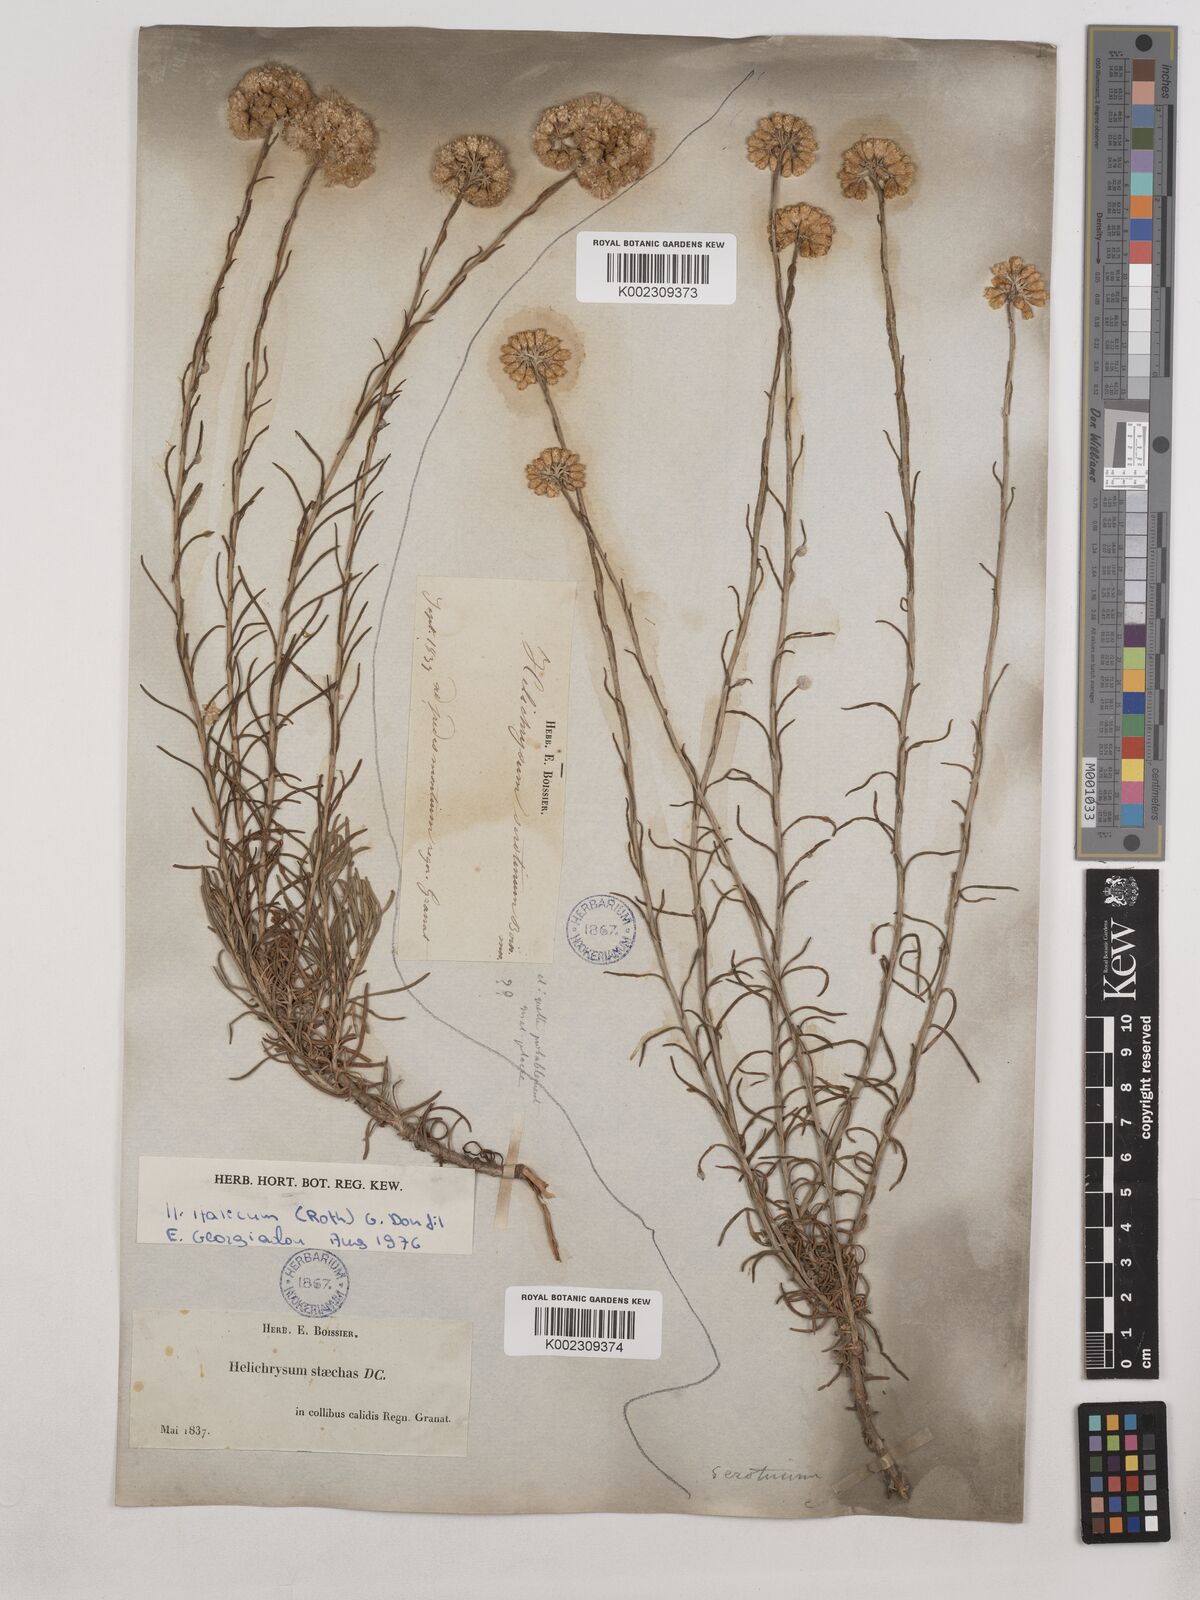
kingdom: Plantae
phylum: Tracheophyta
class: Magnoliopsida
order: Asterales
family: Asteraceae
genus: Helichrysum
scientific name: Helichrysum
